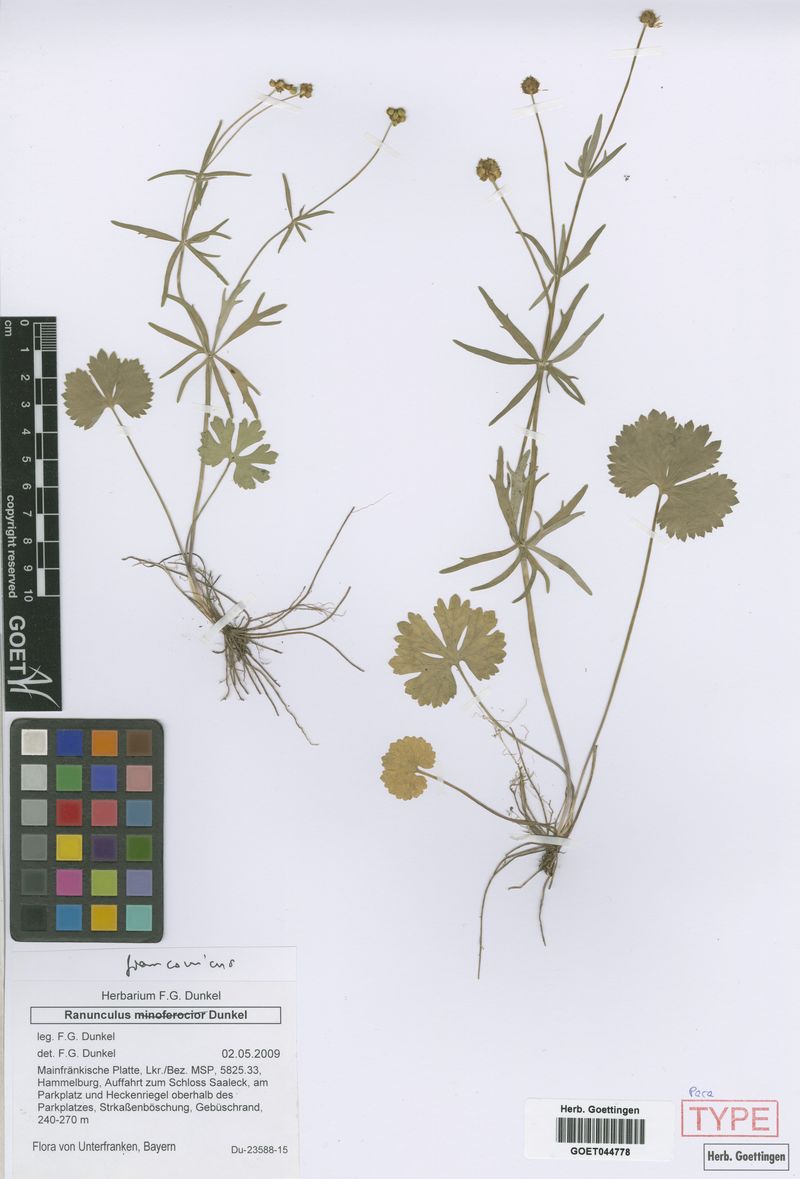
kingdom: Plantae
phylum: Tracheophyta
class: Magnoliopsida
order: Ranunculales
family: Ranunculaceae
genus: Ranunculus
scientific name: Ranunculus franconicus
